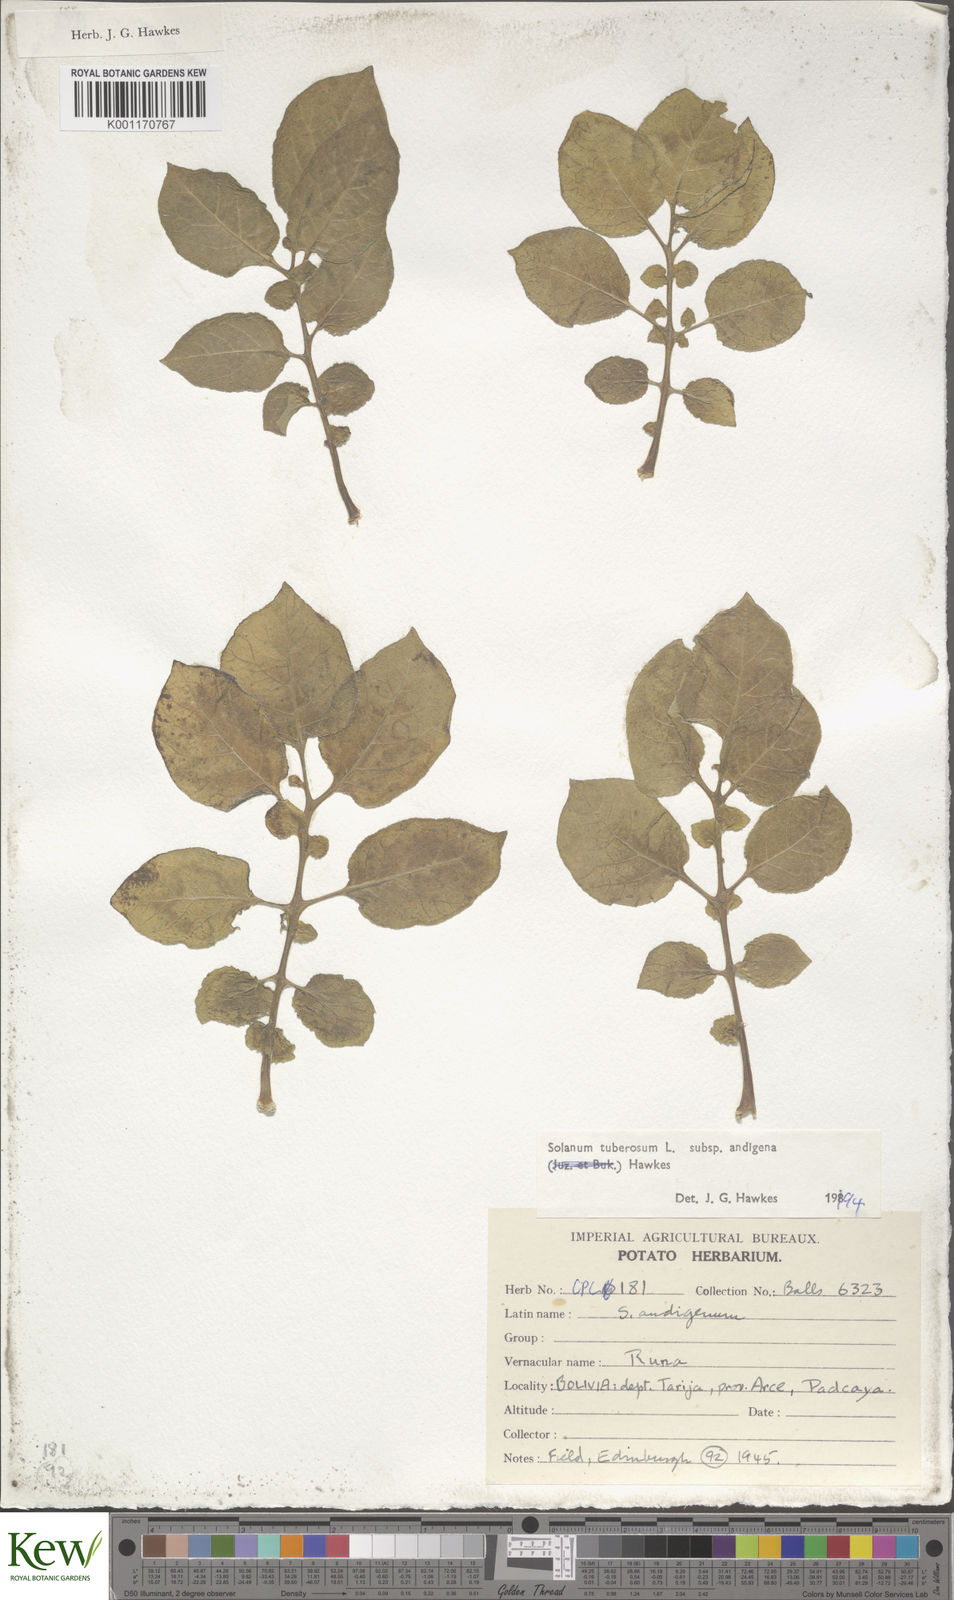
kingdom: Plantae
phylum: Tracheophyta
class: Magnoliopsida
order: Solanales
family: Solanaceae
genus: Solanum
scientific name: Solanum tuberosum
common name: Potato
